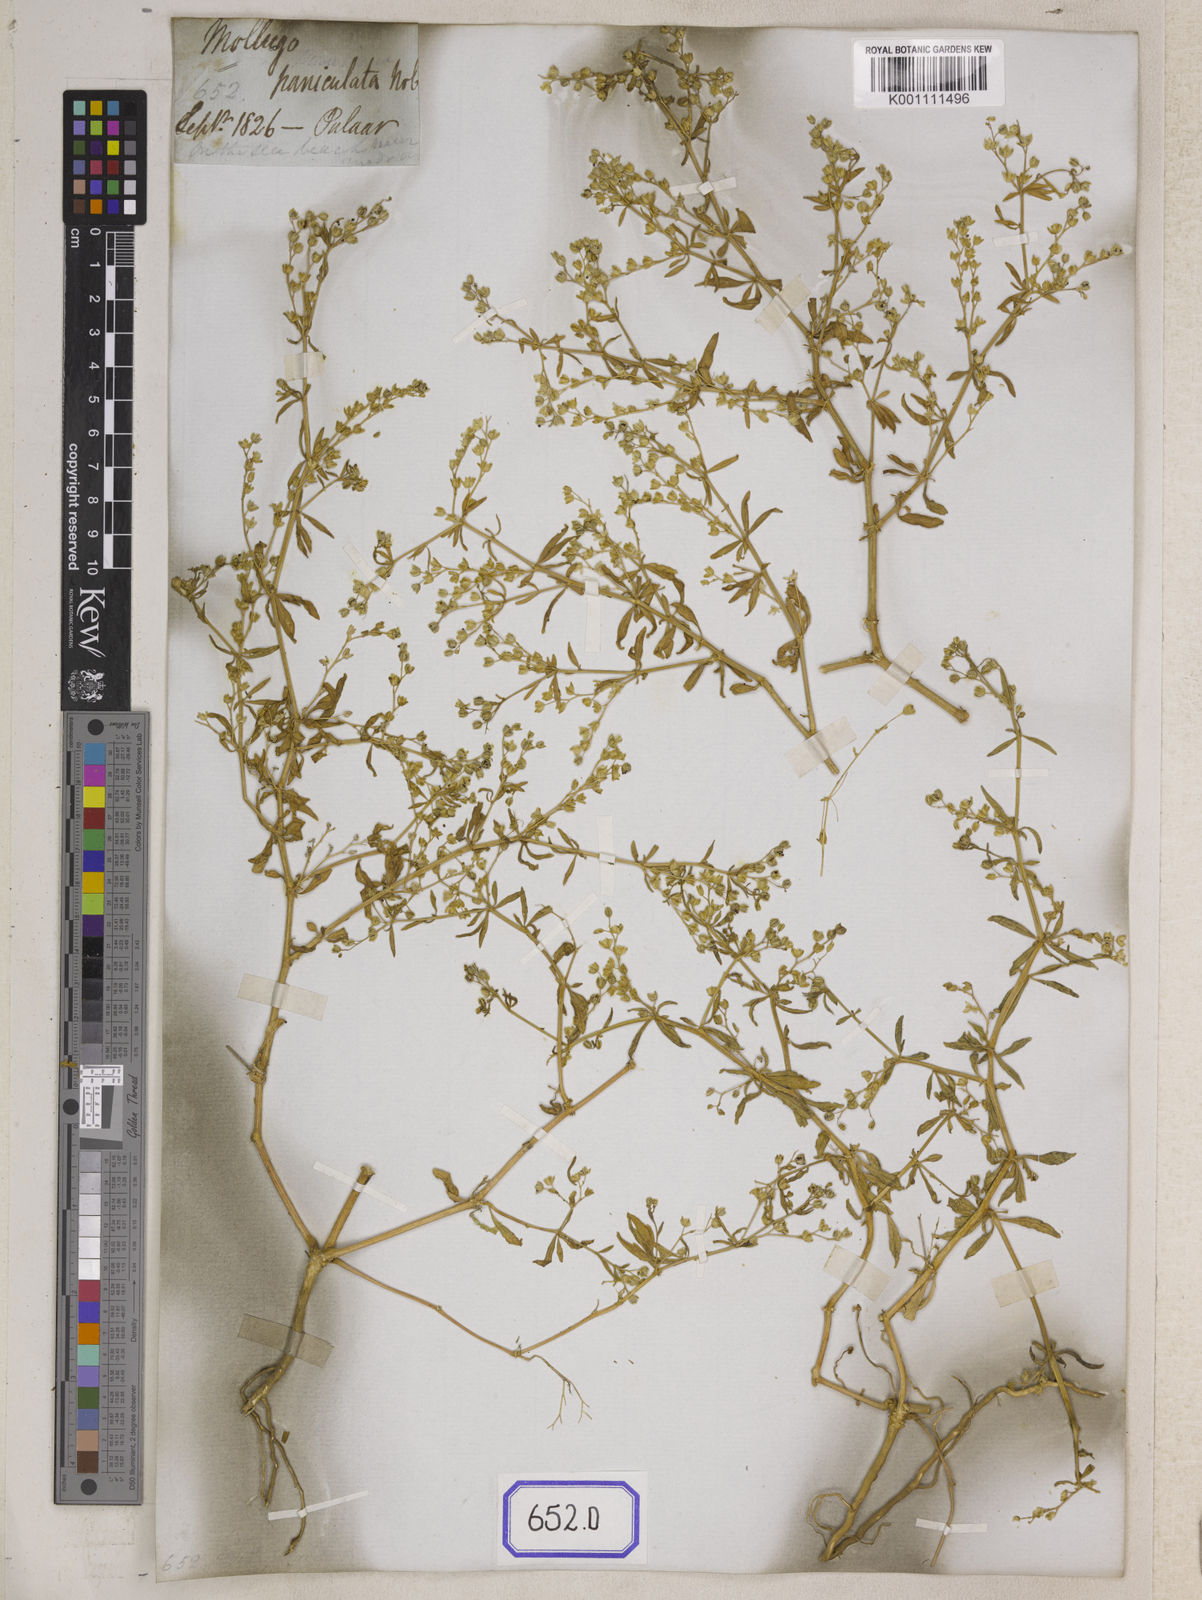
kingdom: Plantae
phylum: Tracheophyta
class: Magnoliopsida
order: Caryophyllales
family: Molluginaceae
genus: Mollugo
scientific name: Mollugo disticha
